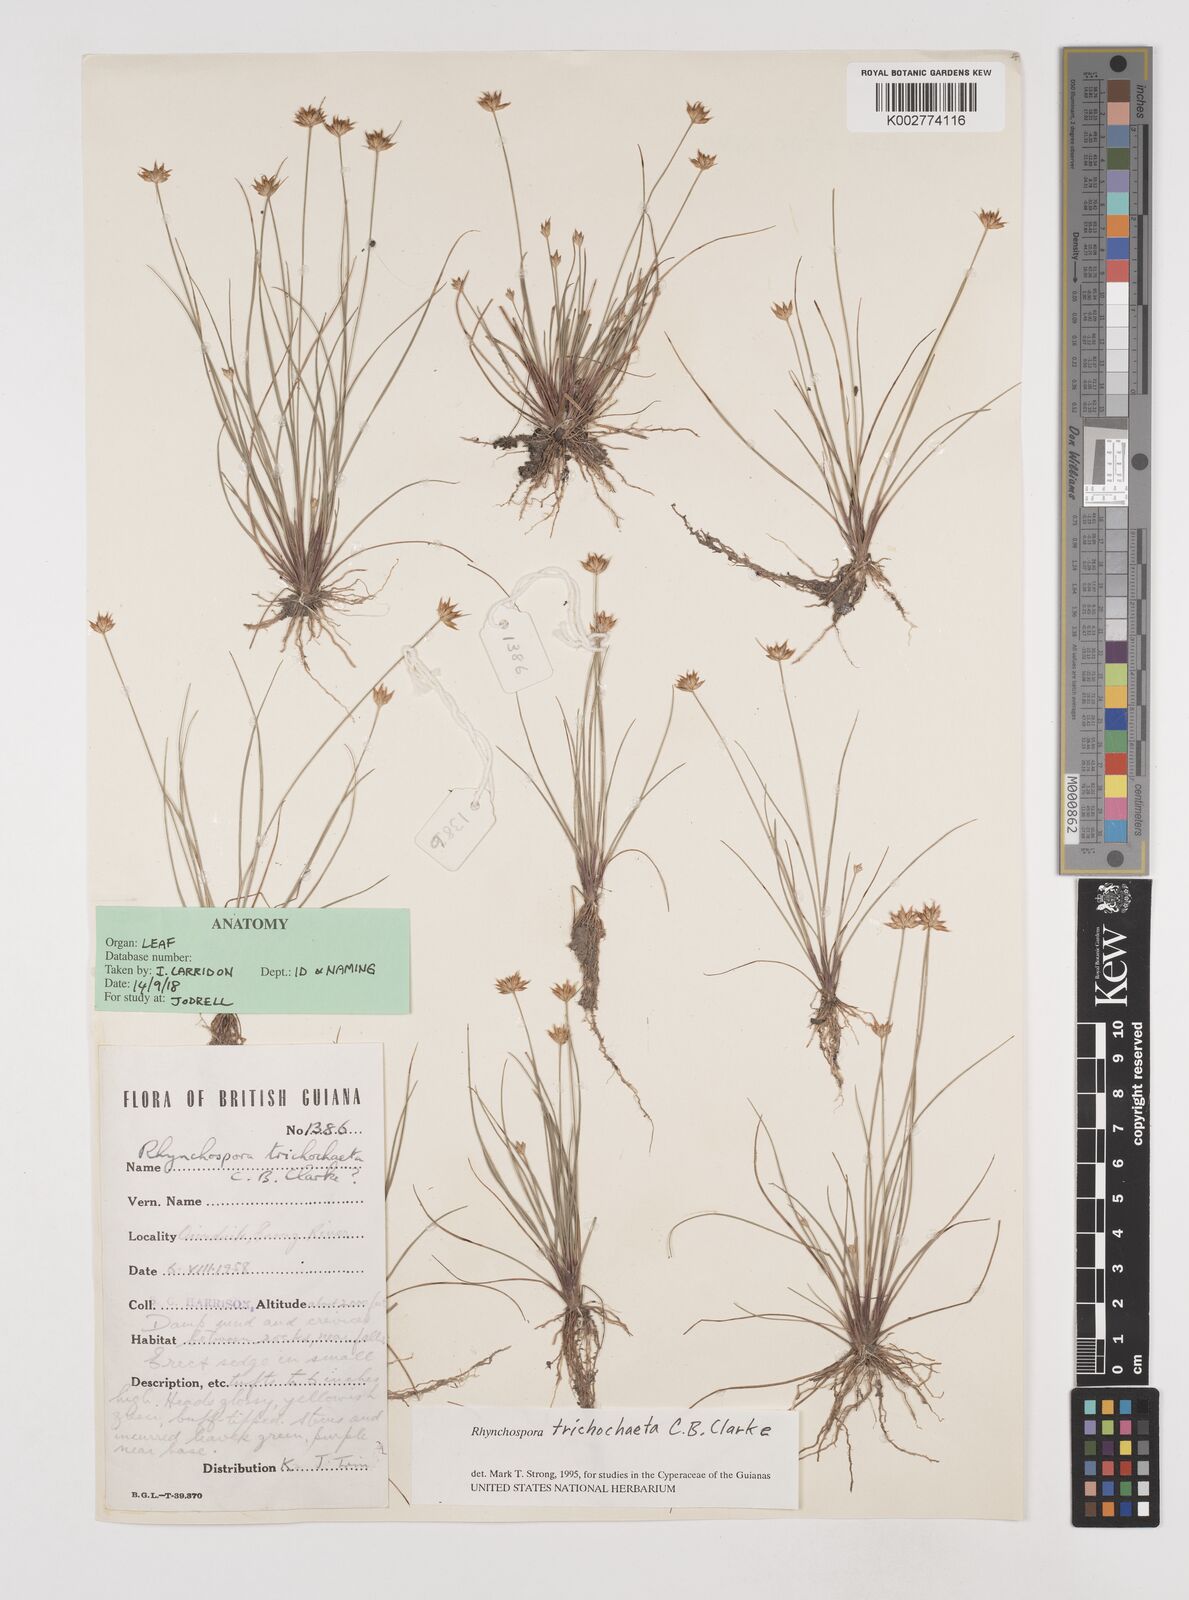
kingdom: Plantae
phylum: Tracheophyta
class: Liliopsida
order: Poales
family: Cyperaceae
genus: Rhynchospora
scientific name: Rhynchospora trichochaeta
